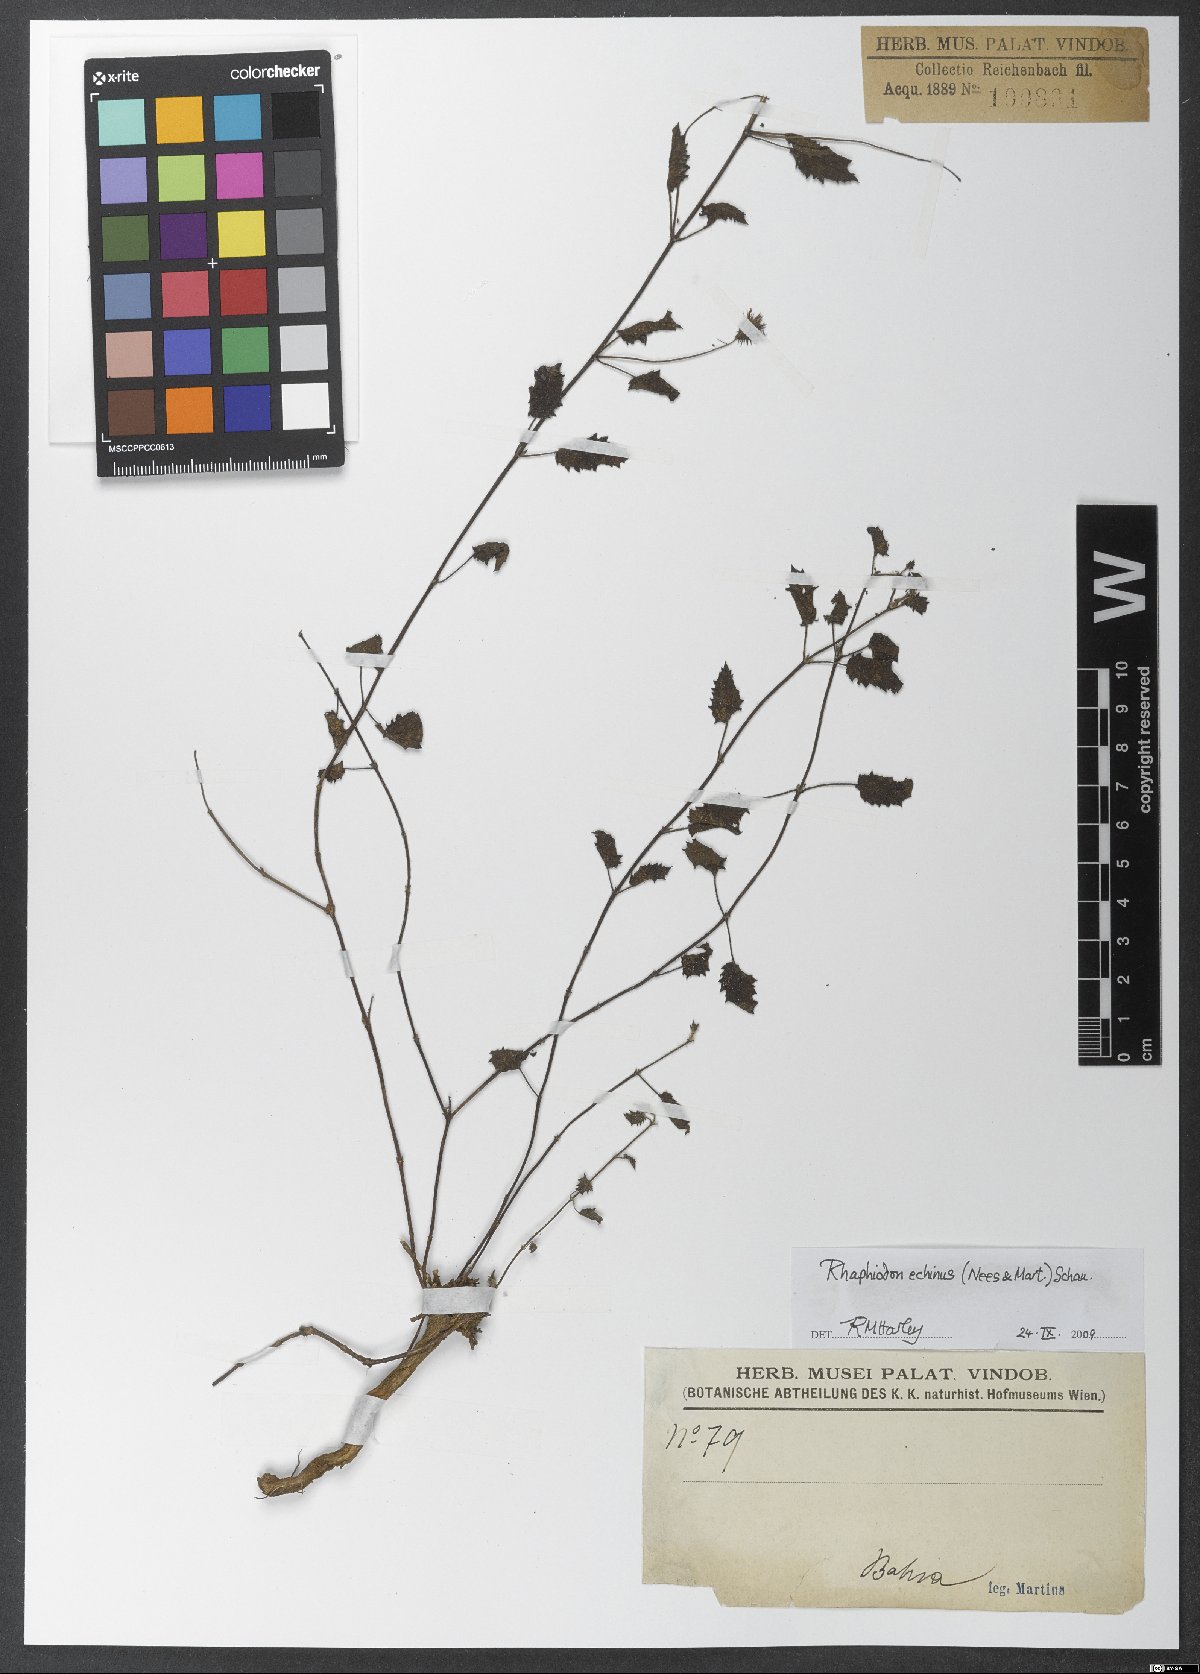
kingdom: Plantae
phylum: Tracheophyta
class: Magnoliopsida
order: Lamiales
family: Lamiaceae
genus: Rhaphiodon
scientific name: Rhaphiodon echinus
